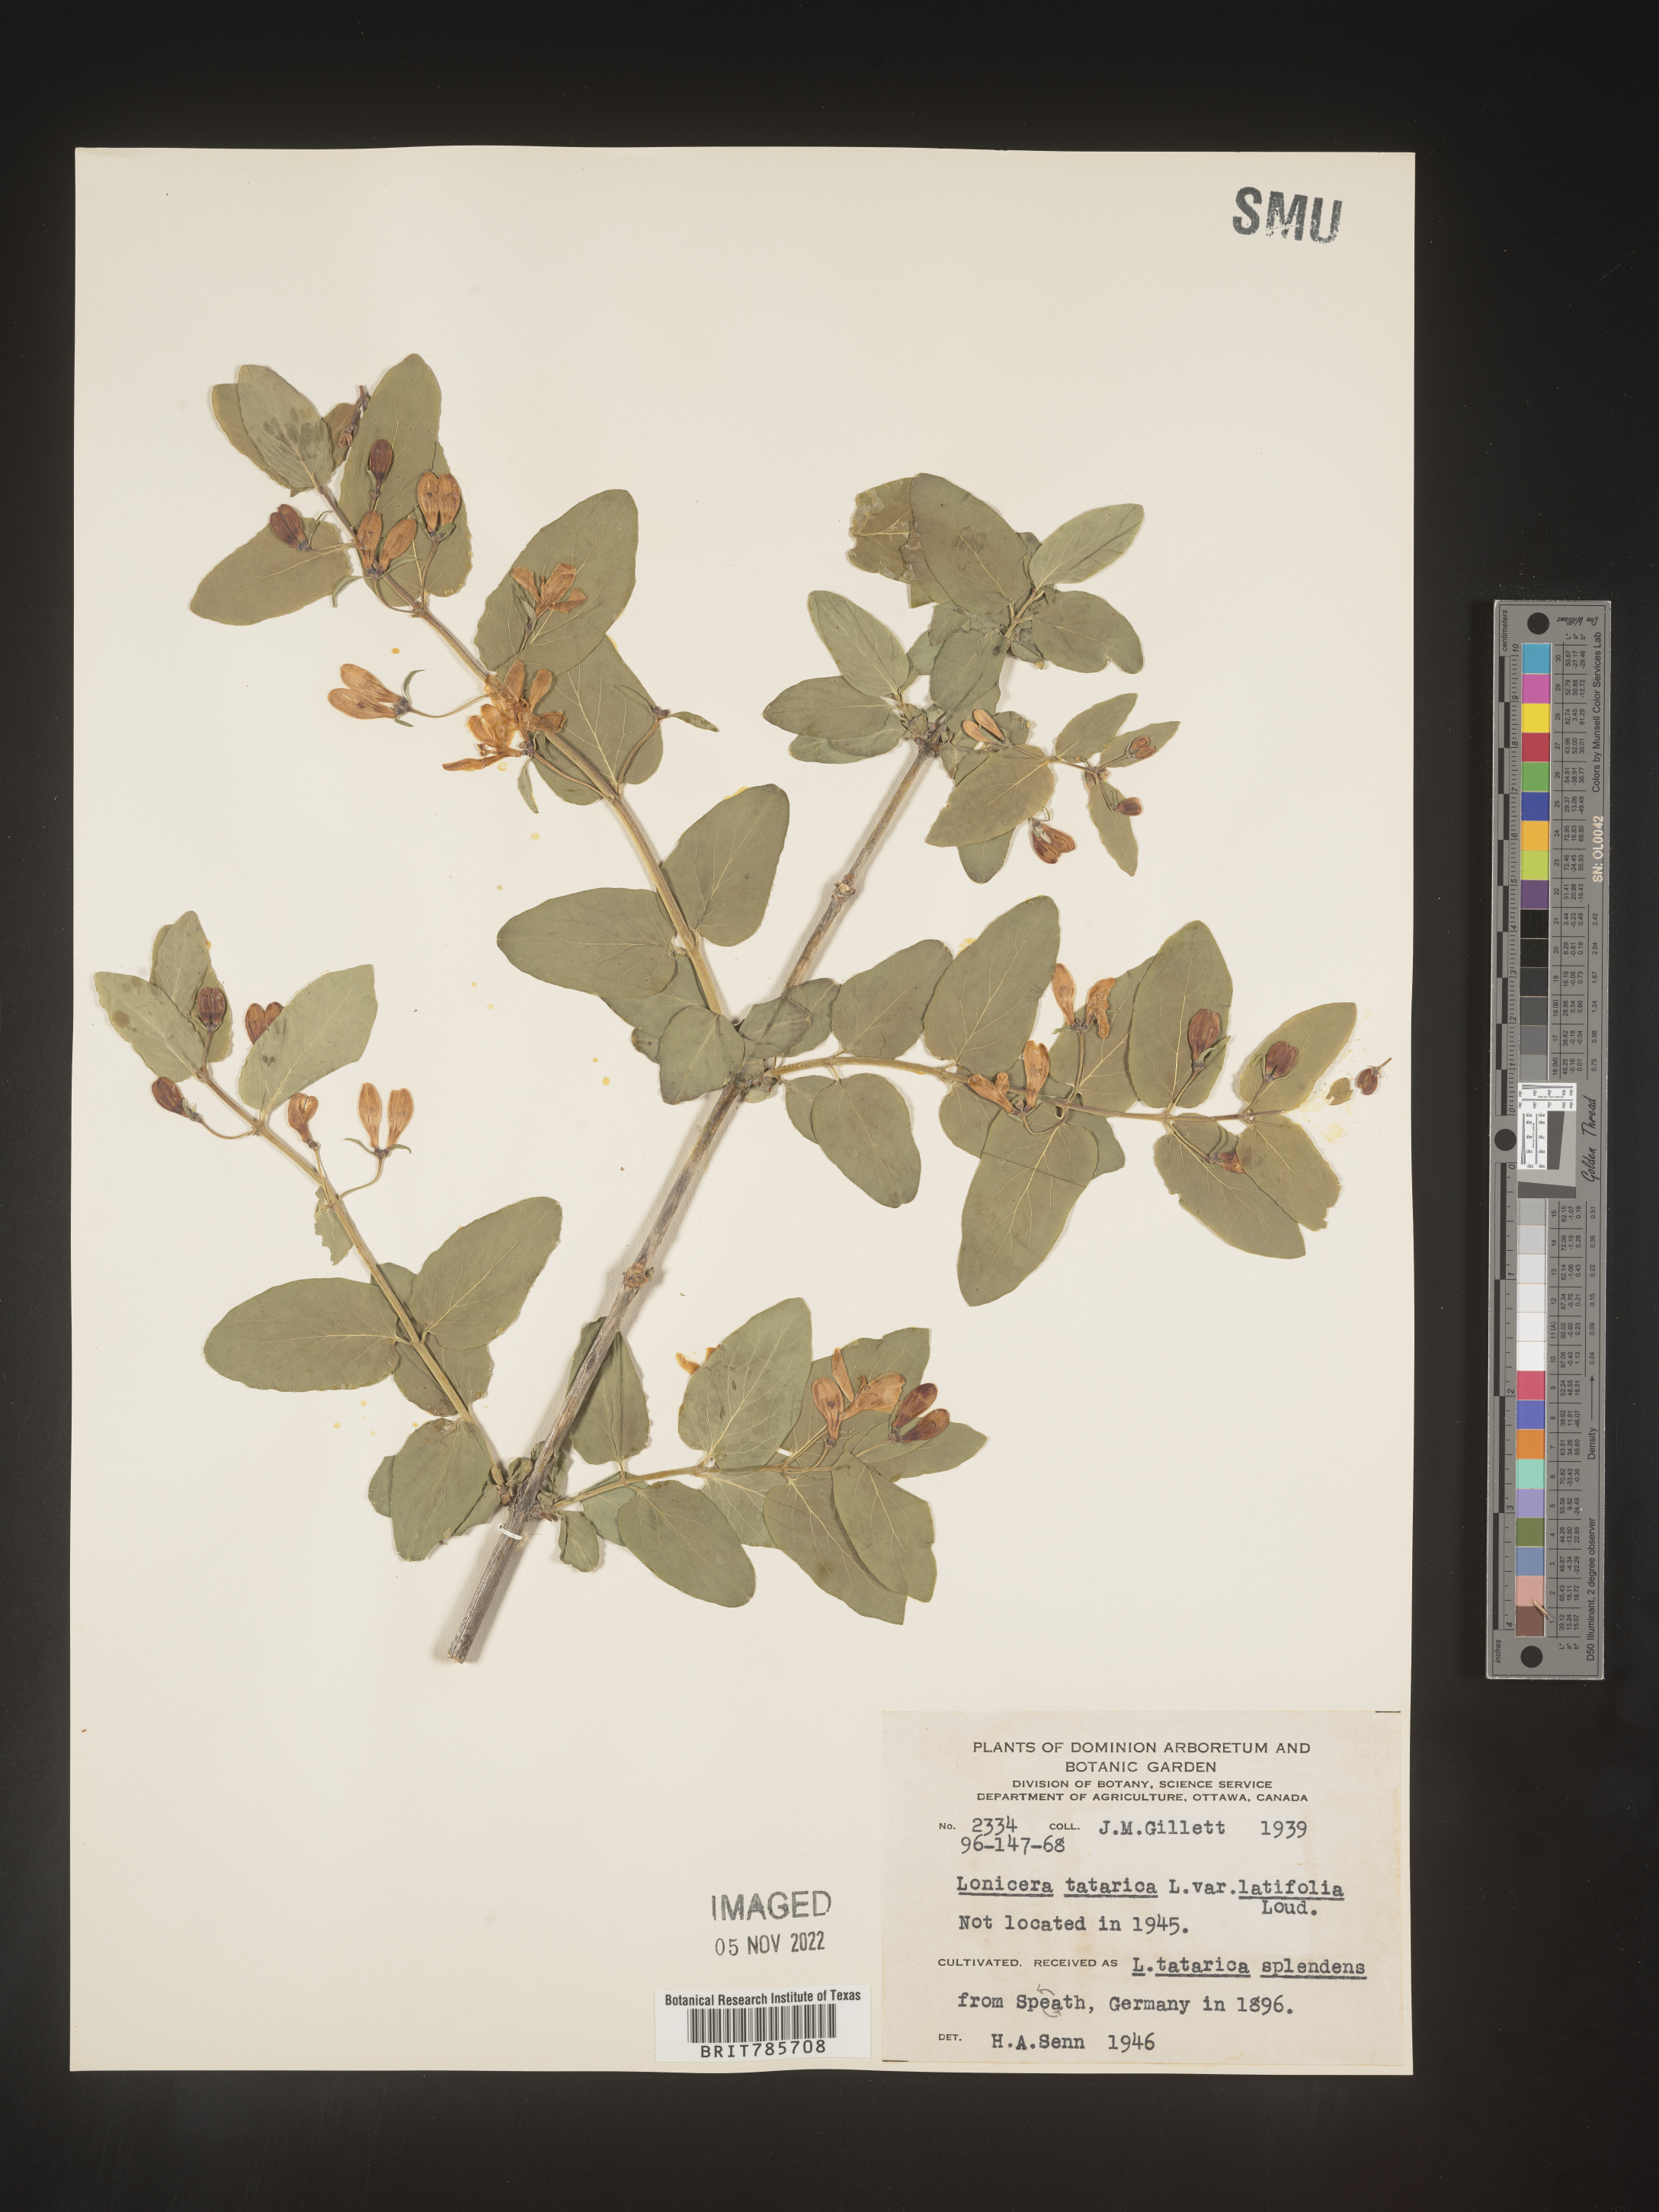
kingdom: Plantae
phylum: Tracheophyta
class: Magnoliopsida
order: Dipsacales
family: Caprifoliaceae
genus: Lonicera
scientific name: Lonicera
